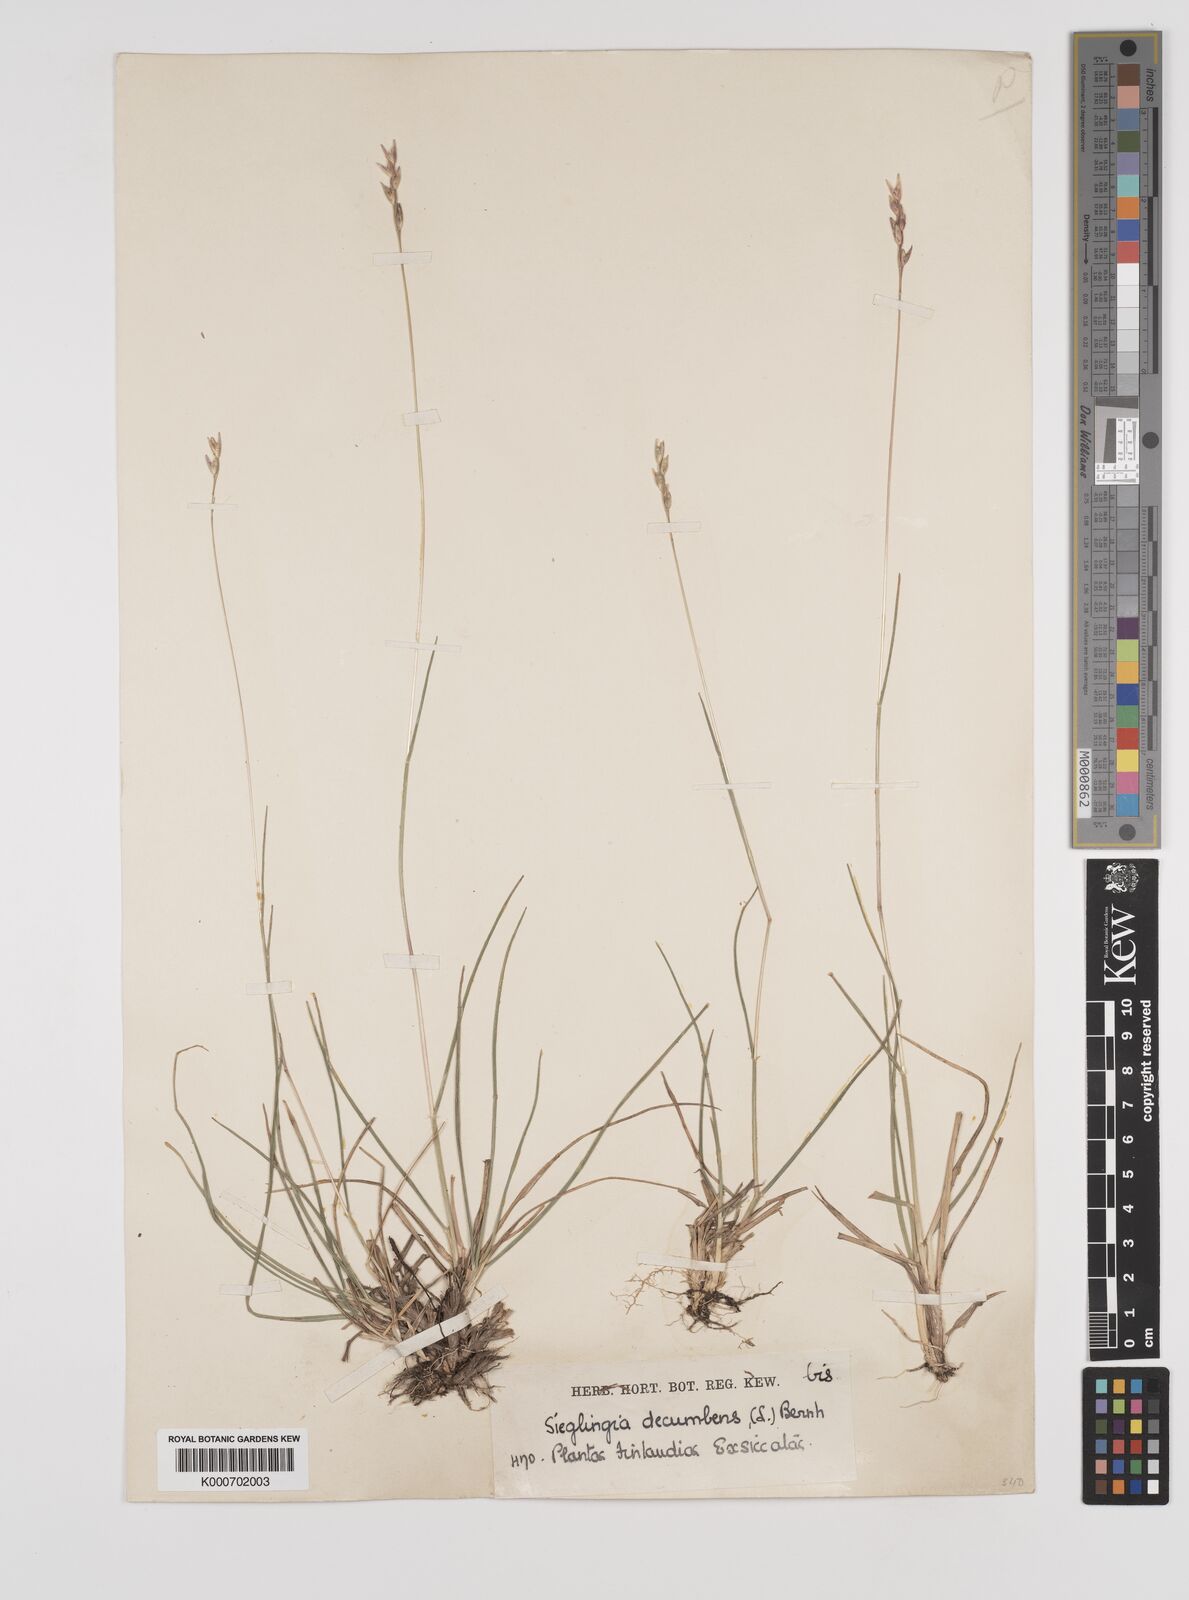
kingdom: Plantae
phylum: Tracheophyta
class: Liliopsida
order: Poales
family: Poaceae
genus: Danthonia
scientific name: Danthonia decumbens
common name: Common heathgrass
